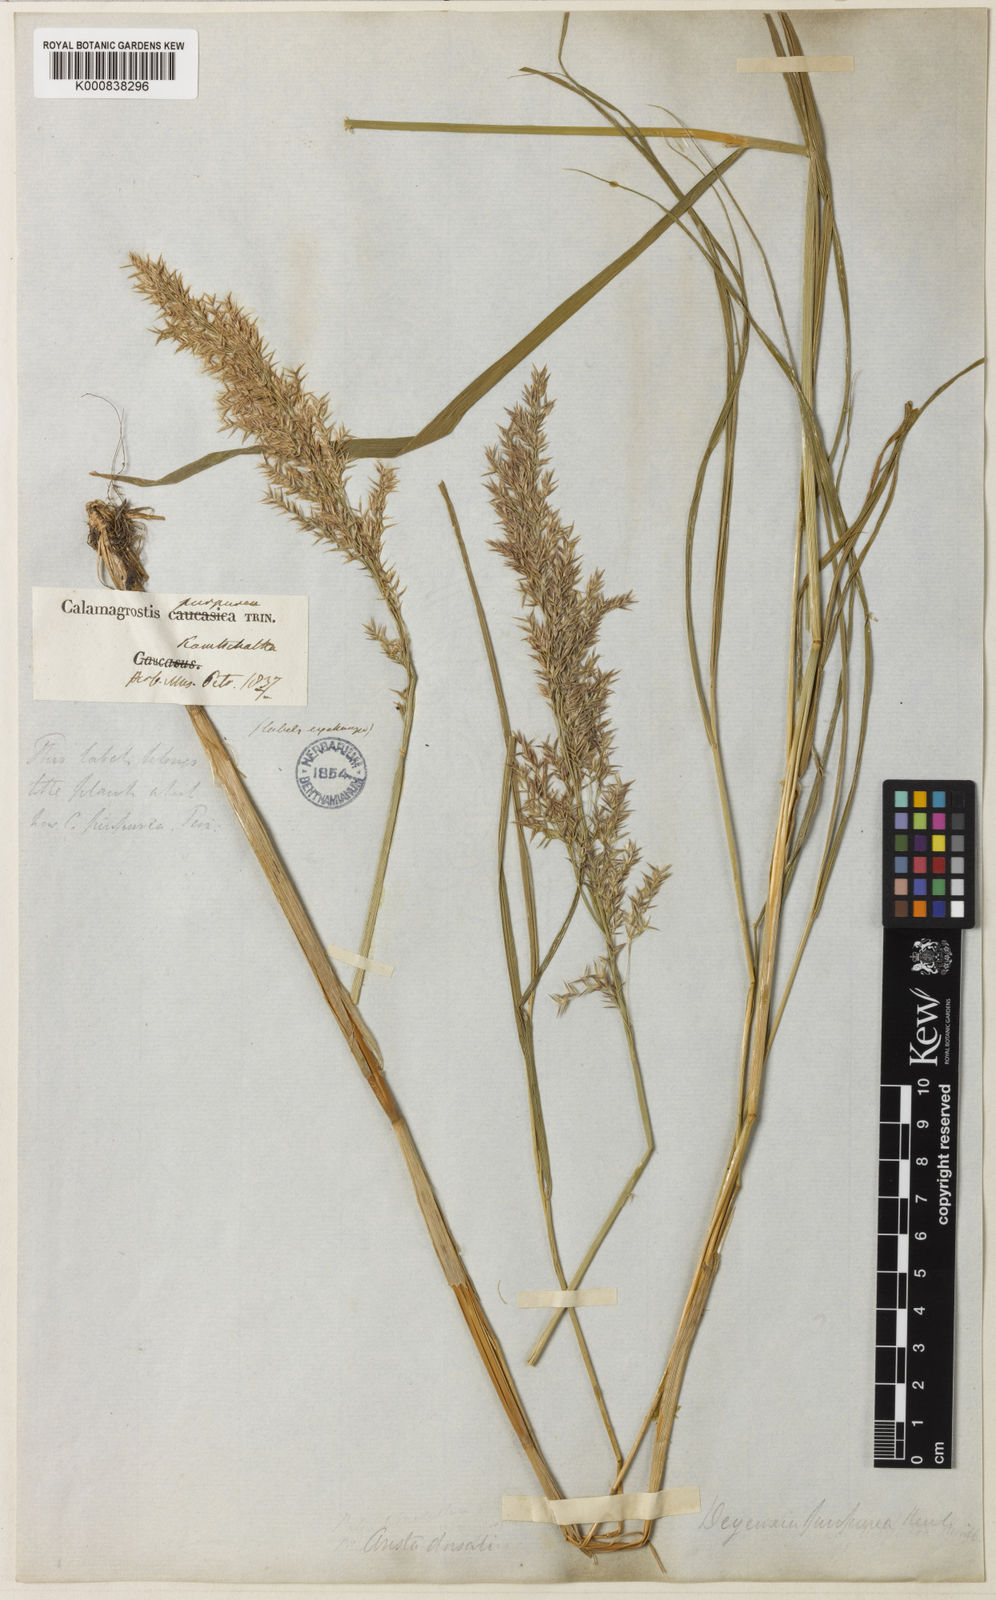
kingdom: Plantae
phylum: Tracheophyta
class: Liliopsida
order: Poales
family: Poaceae
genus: Calamagrostis
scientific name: Calamagrostis purpurea
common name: Scandinavian small-reed
